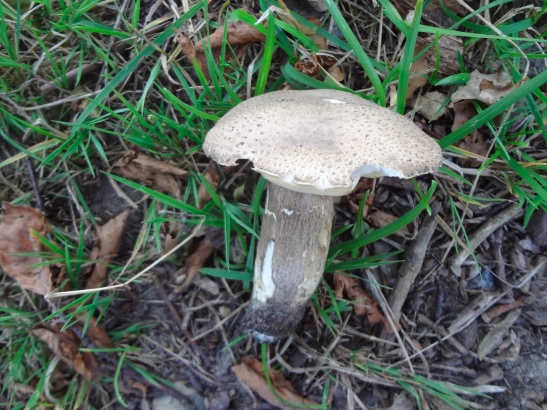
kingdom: Fungi
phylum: Basidiomycota
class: Agaricomycetes
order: Boletales
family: Boletaceae
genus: Leccinum
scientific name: Leccinum duriusculum
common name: poppel-skælrørhat
